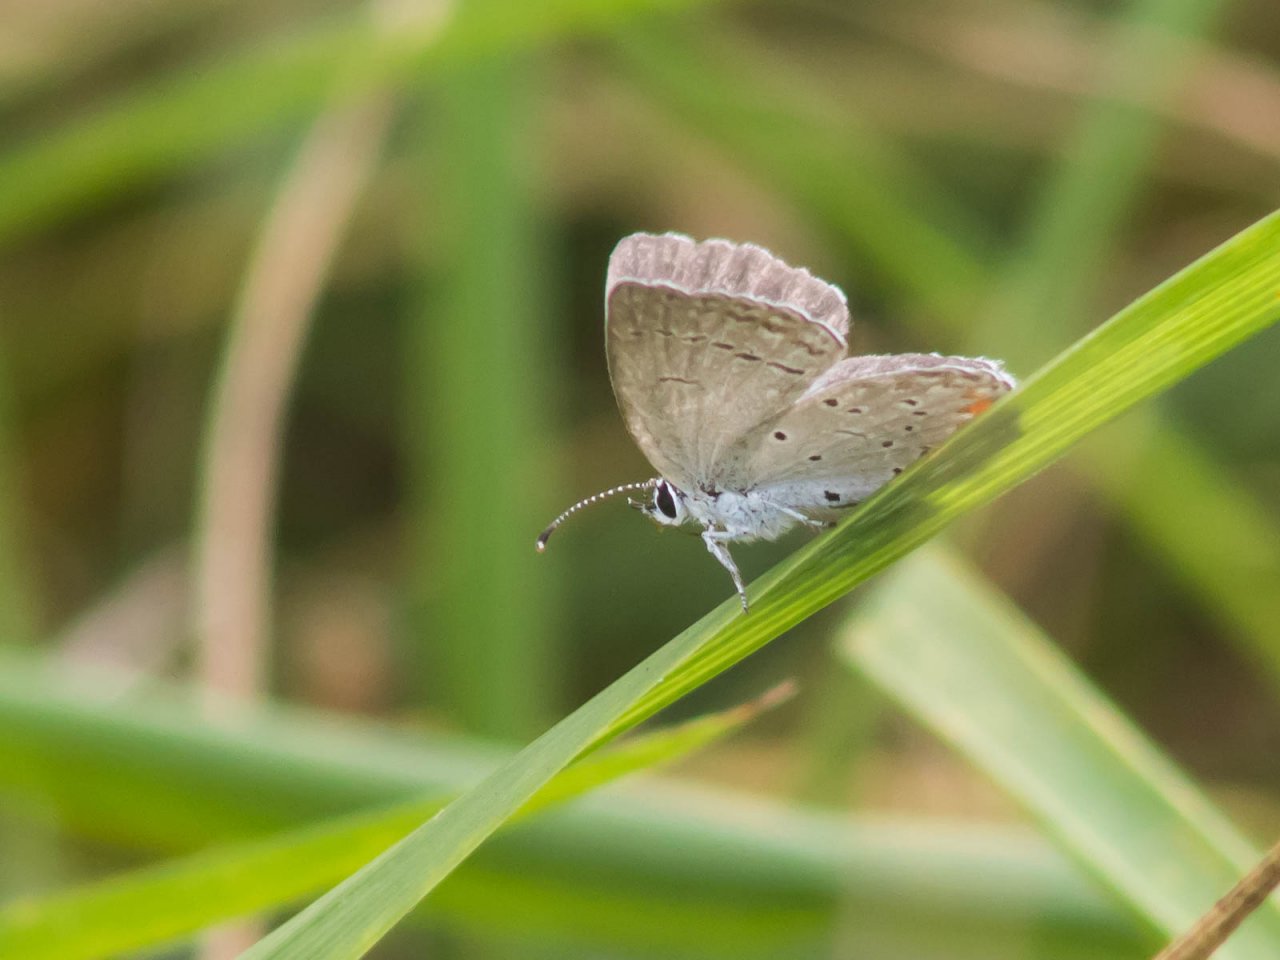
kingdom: Animalia
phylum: Arthropoda
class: Insecta
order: Lepidoptera
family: Lycaenidae
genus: Elkalyce
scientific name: Elkalyce comyntas
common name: Eastern Tailed-Blue
